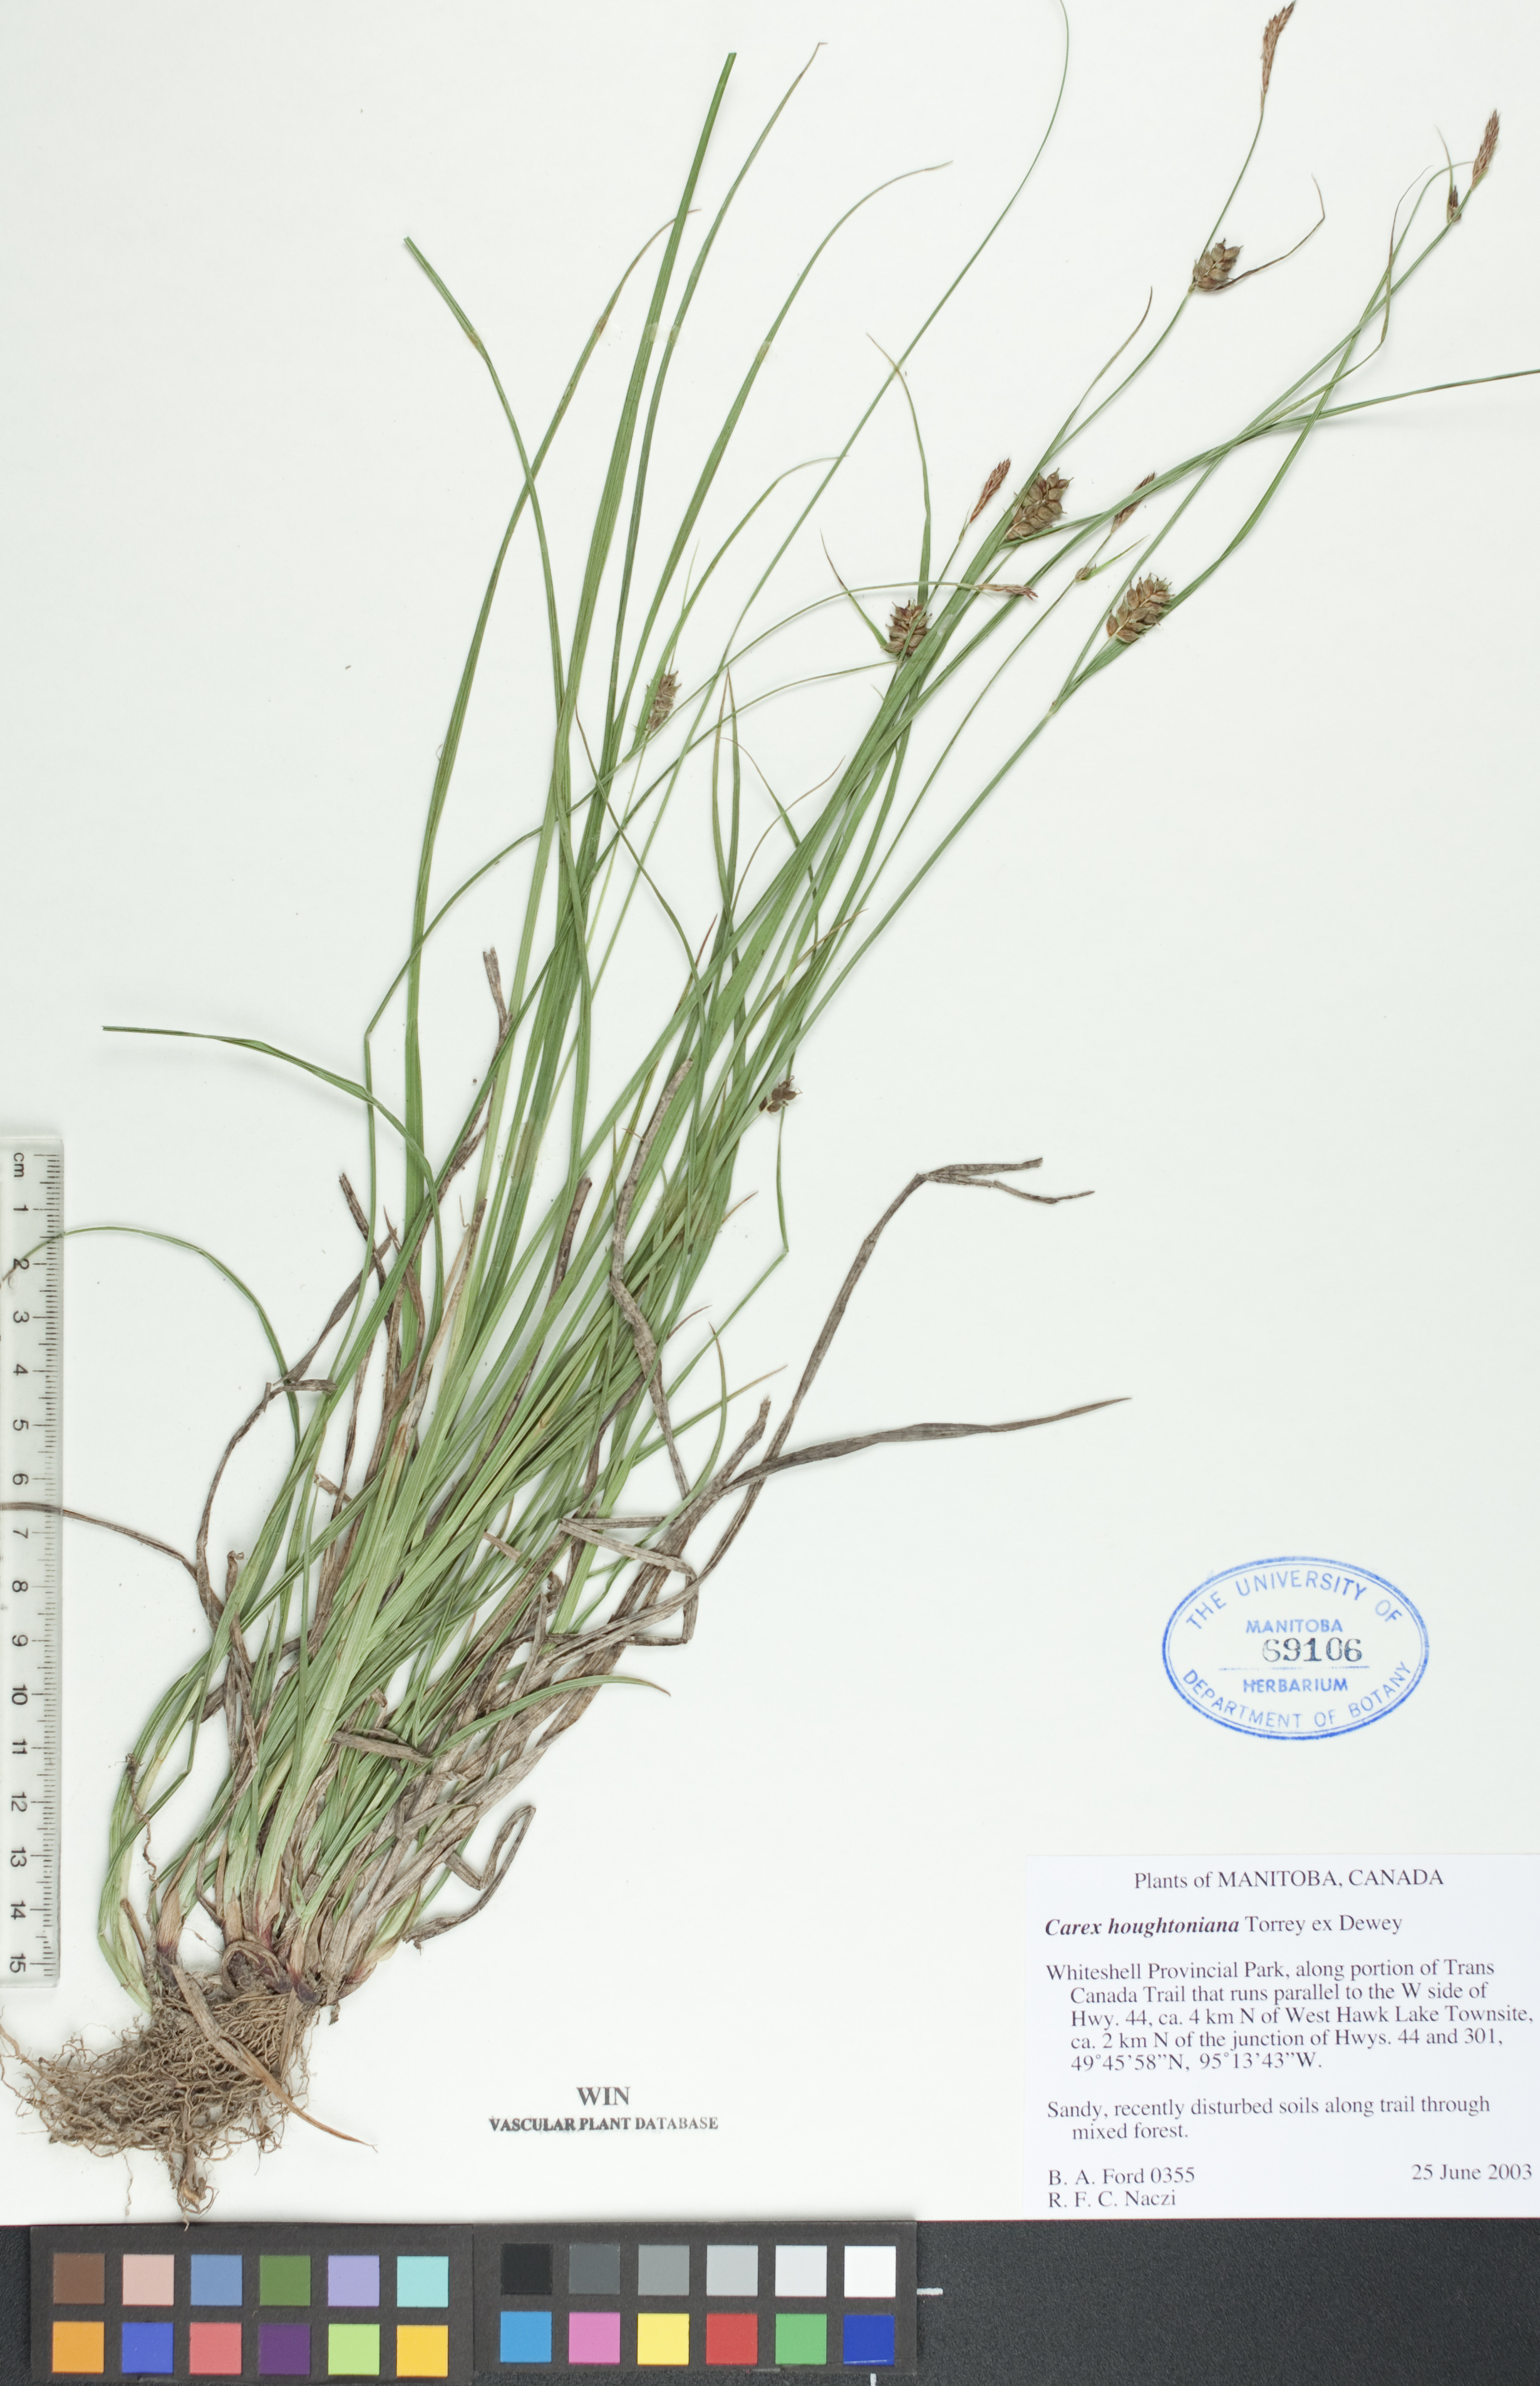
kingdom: Plantae
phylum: Tracheophyta
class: Liliopsida
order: Poales
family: Cyperaceae
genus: Carex
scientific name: Carex houghtoniana
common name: Houghton's sedge
